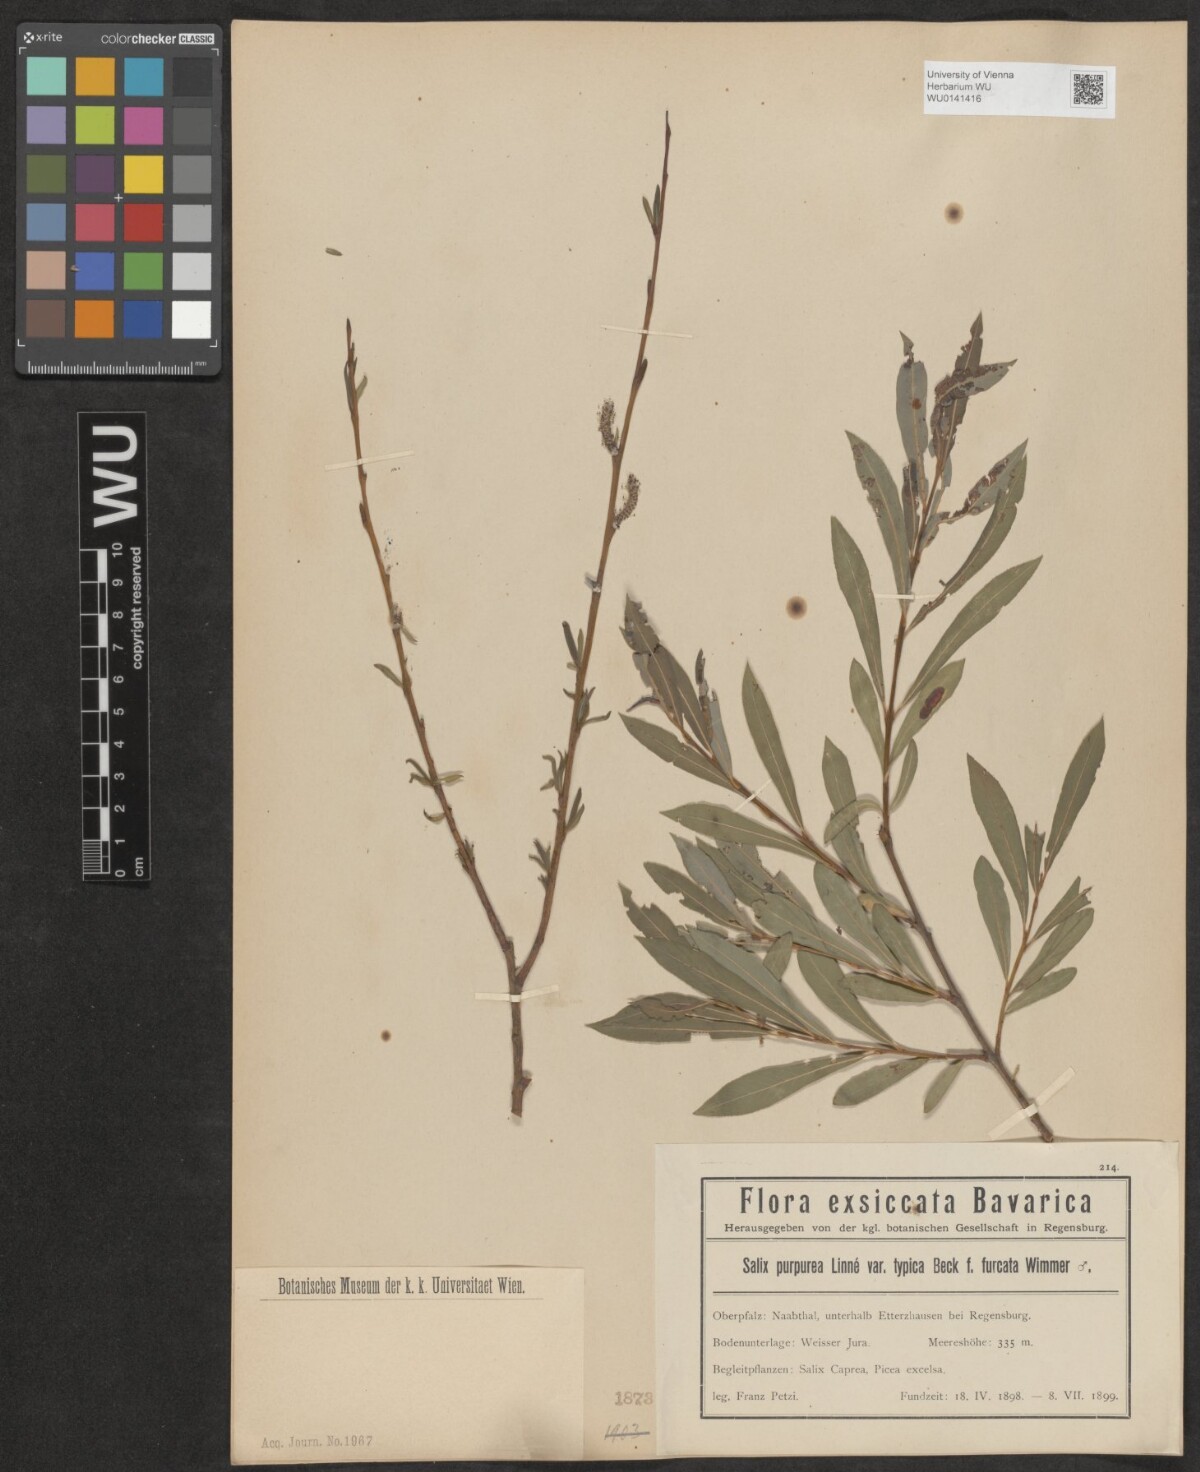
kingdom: Plantae
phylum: Tracheophyta
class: Magnoliopsida
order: Malpighiales
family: Salicaceae
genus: Salix
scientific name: Salix purpurea
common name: Purple willow
